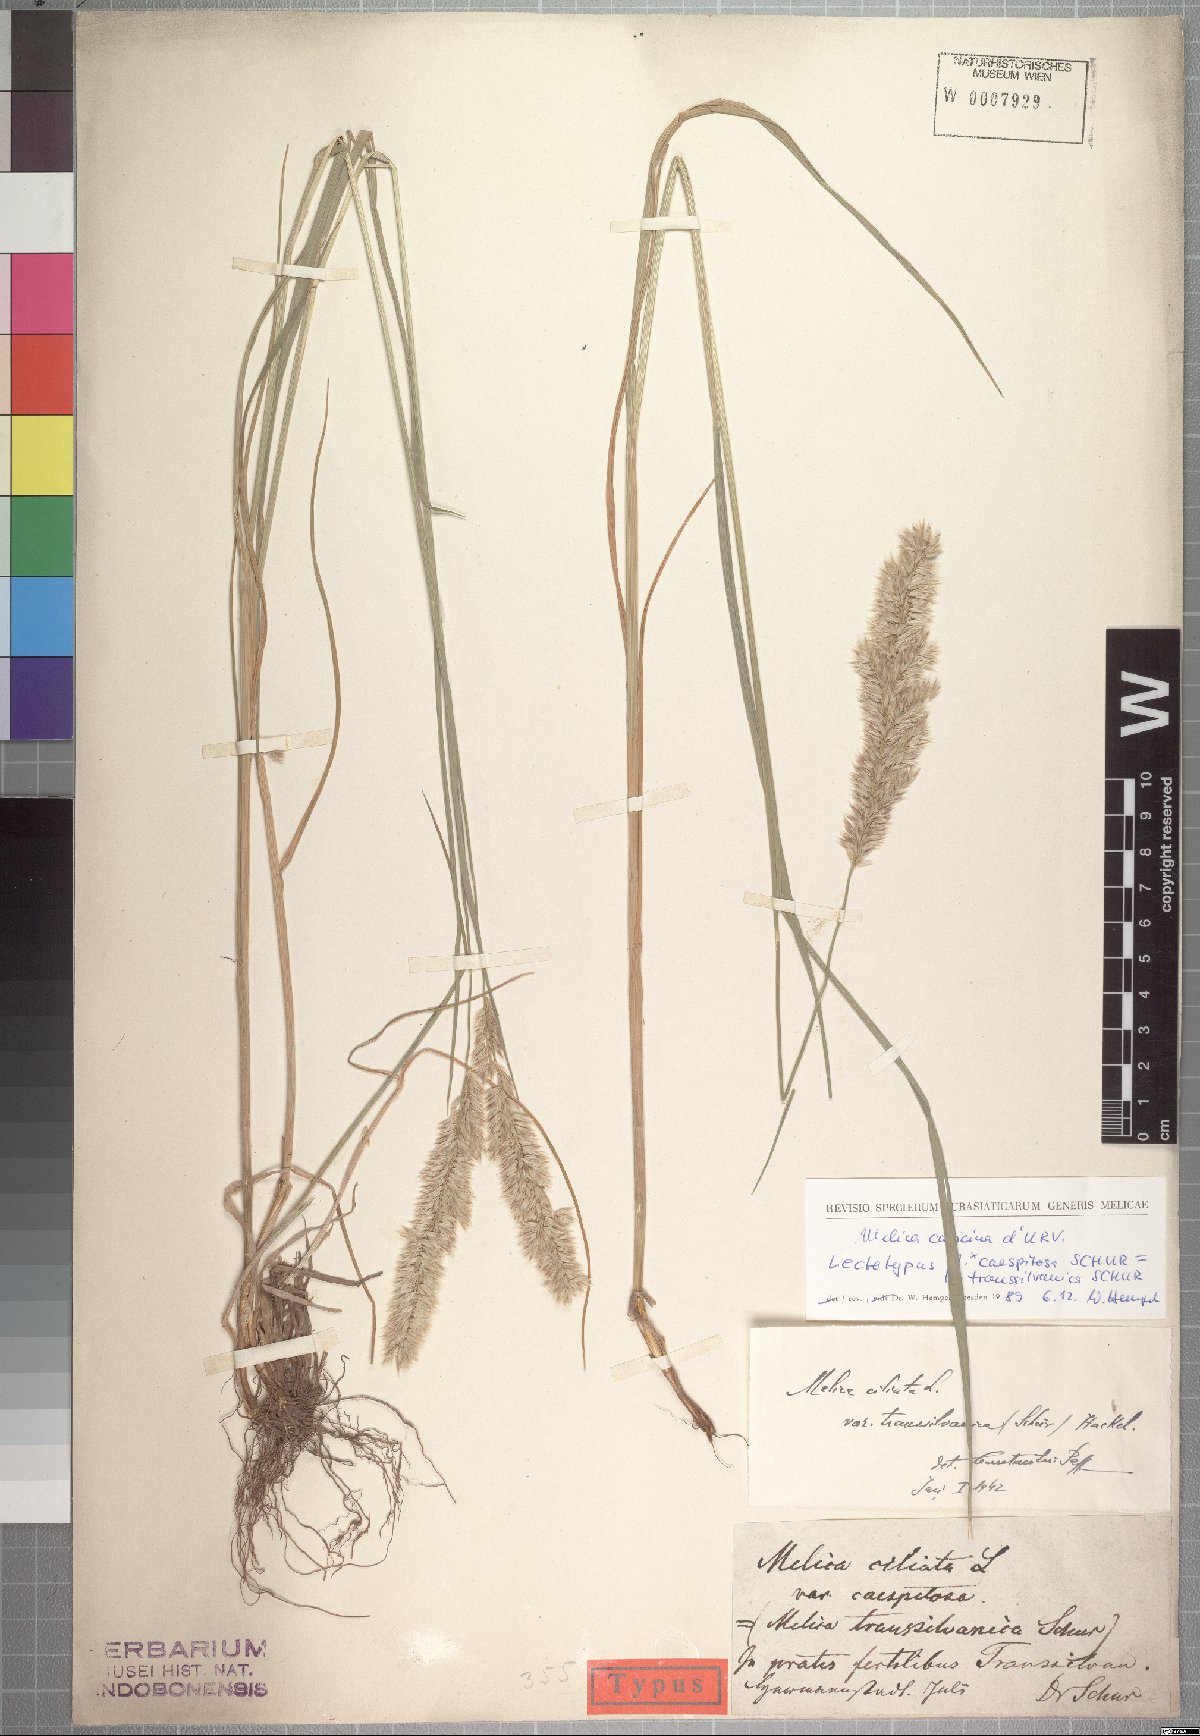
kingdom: Plantae
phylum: Tracheophyta
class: Liliopsida
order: Poales
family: Poaceae
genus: Melica
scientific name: Melica transsilvanica
